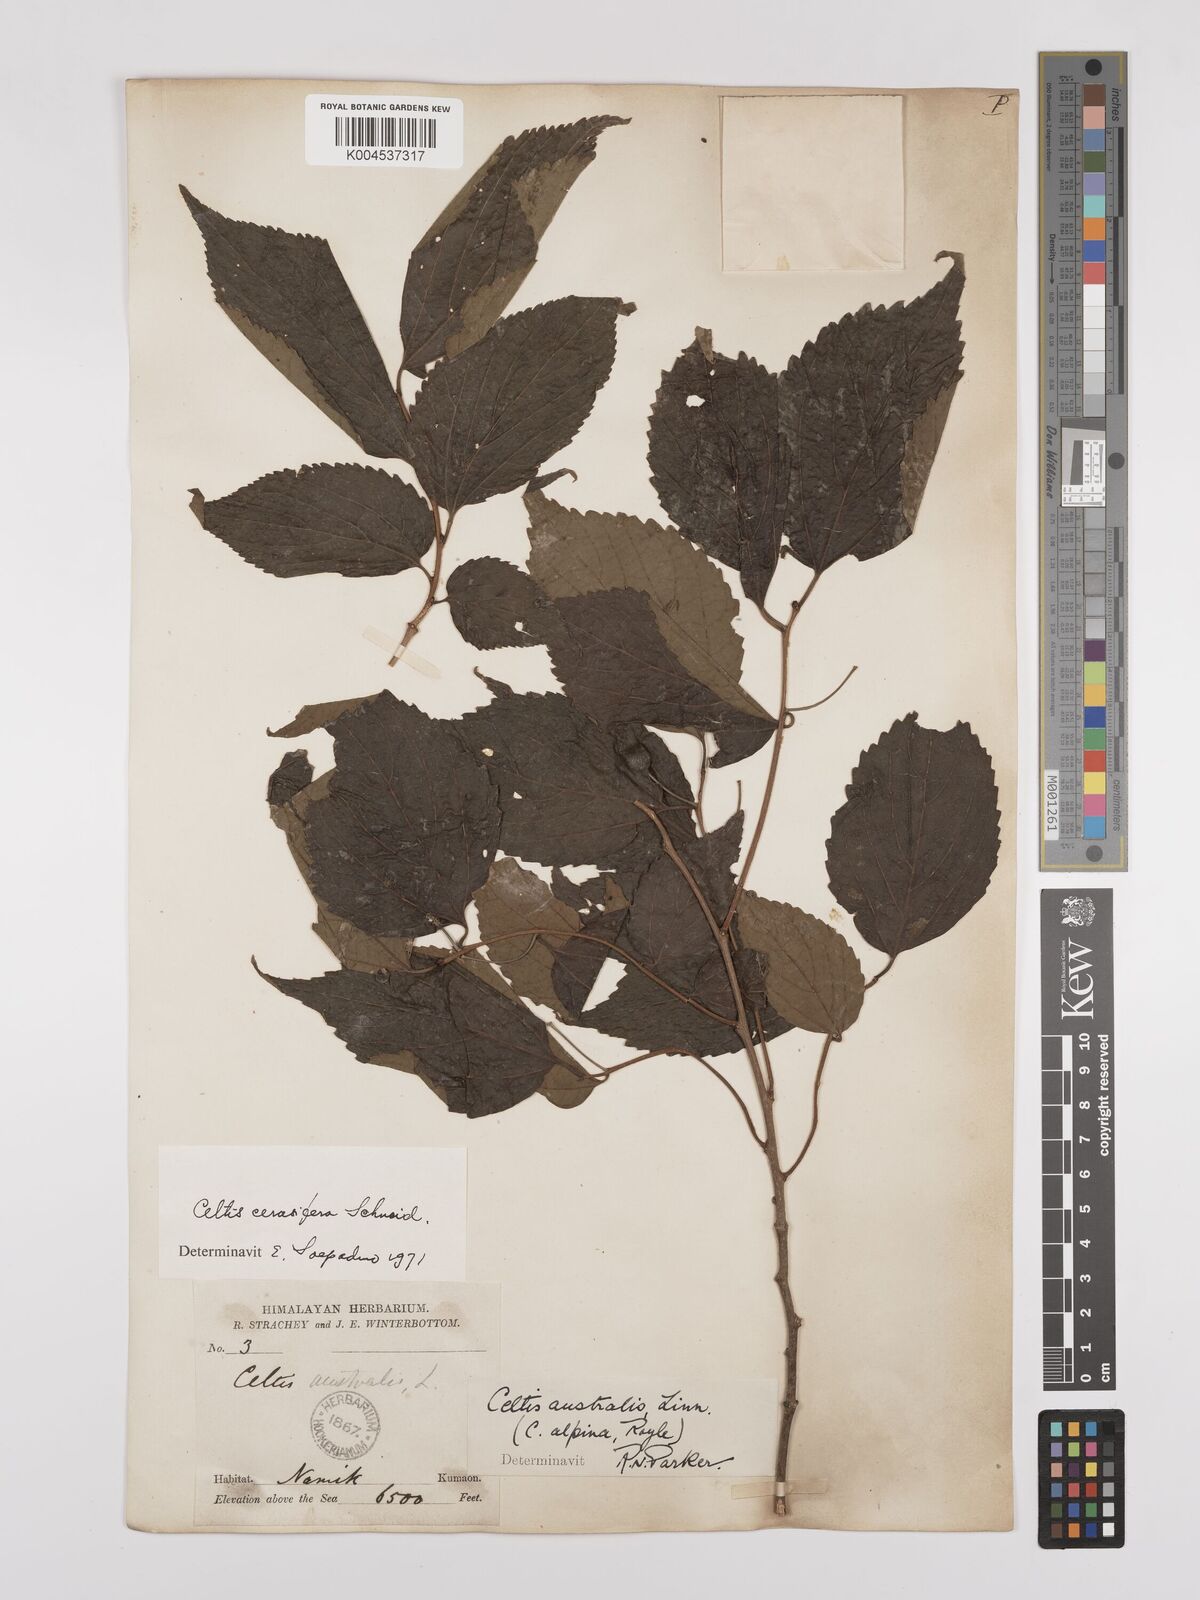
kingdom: Plantae
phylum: Tracheophyta
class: Magnoliopsida
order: Rosales
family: Cannabaceae
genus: Celtis
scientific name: Celtis cerasifera
